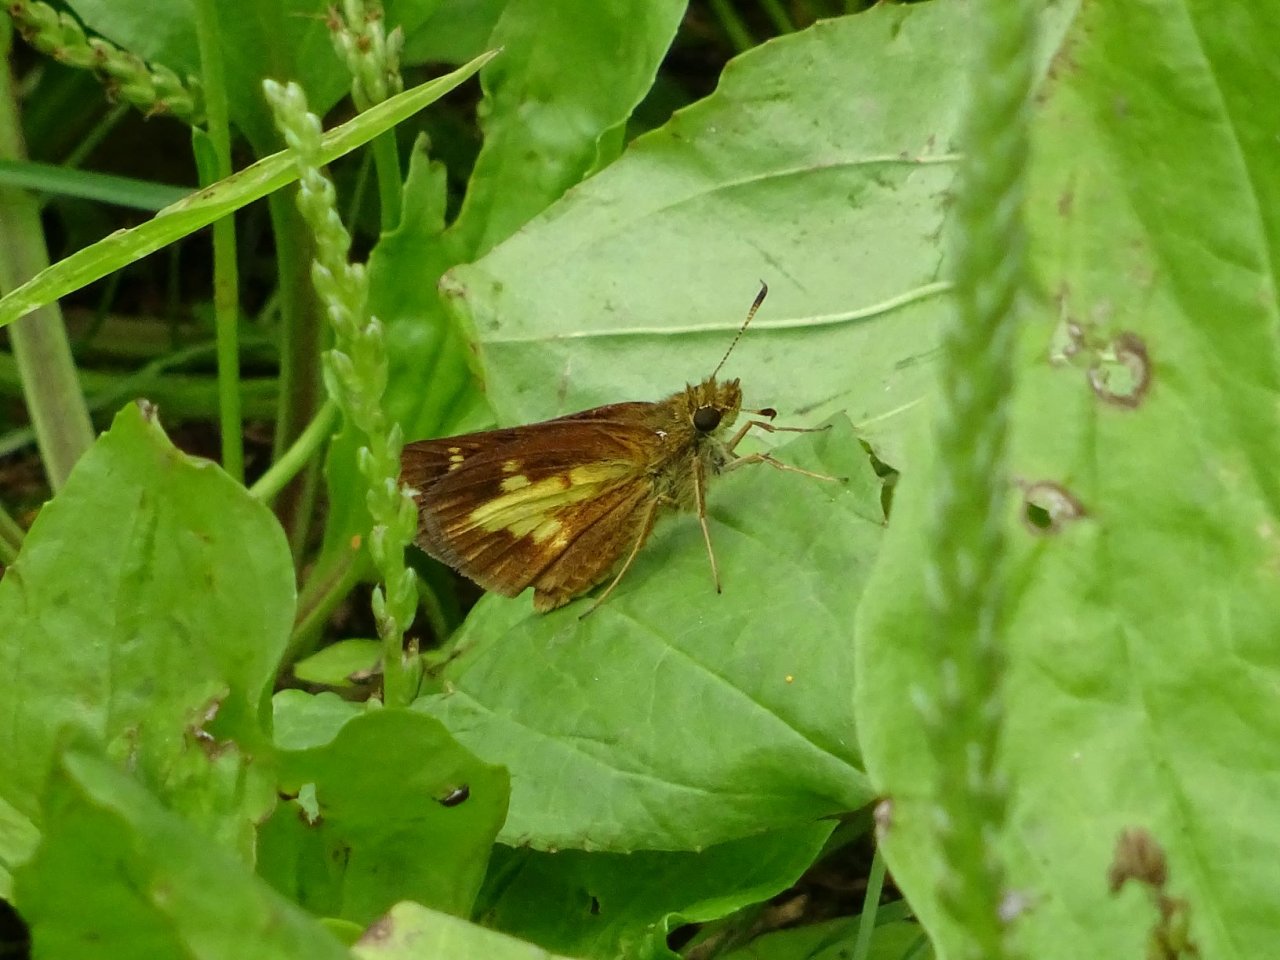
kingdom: Animalia
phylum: Arthropoda
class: Insecta
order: Lepidoptera
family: Hesperiidae
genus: Poanes
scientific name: Poanes massasoit
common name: Mulberry Wing
